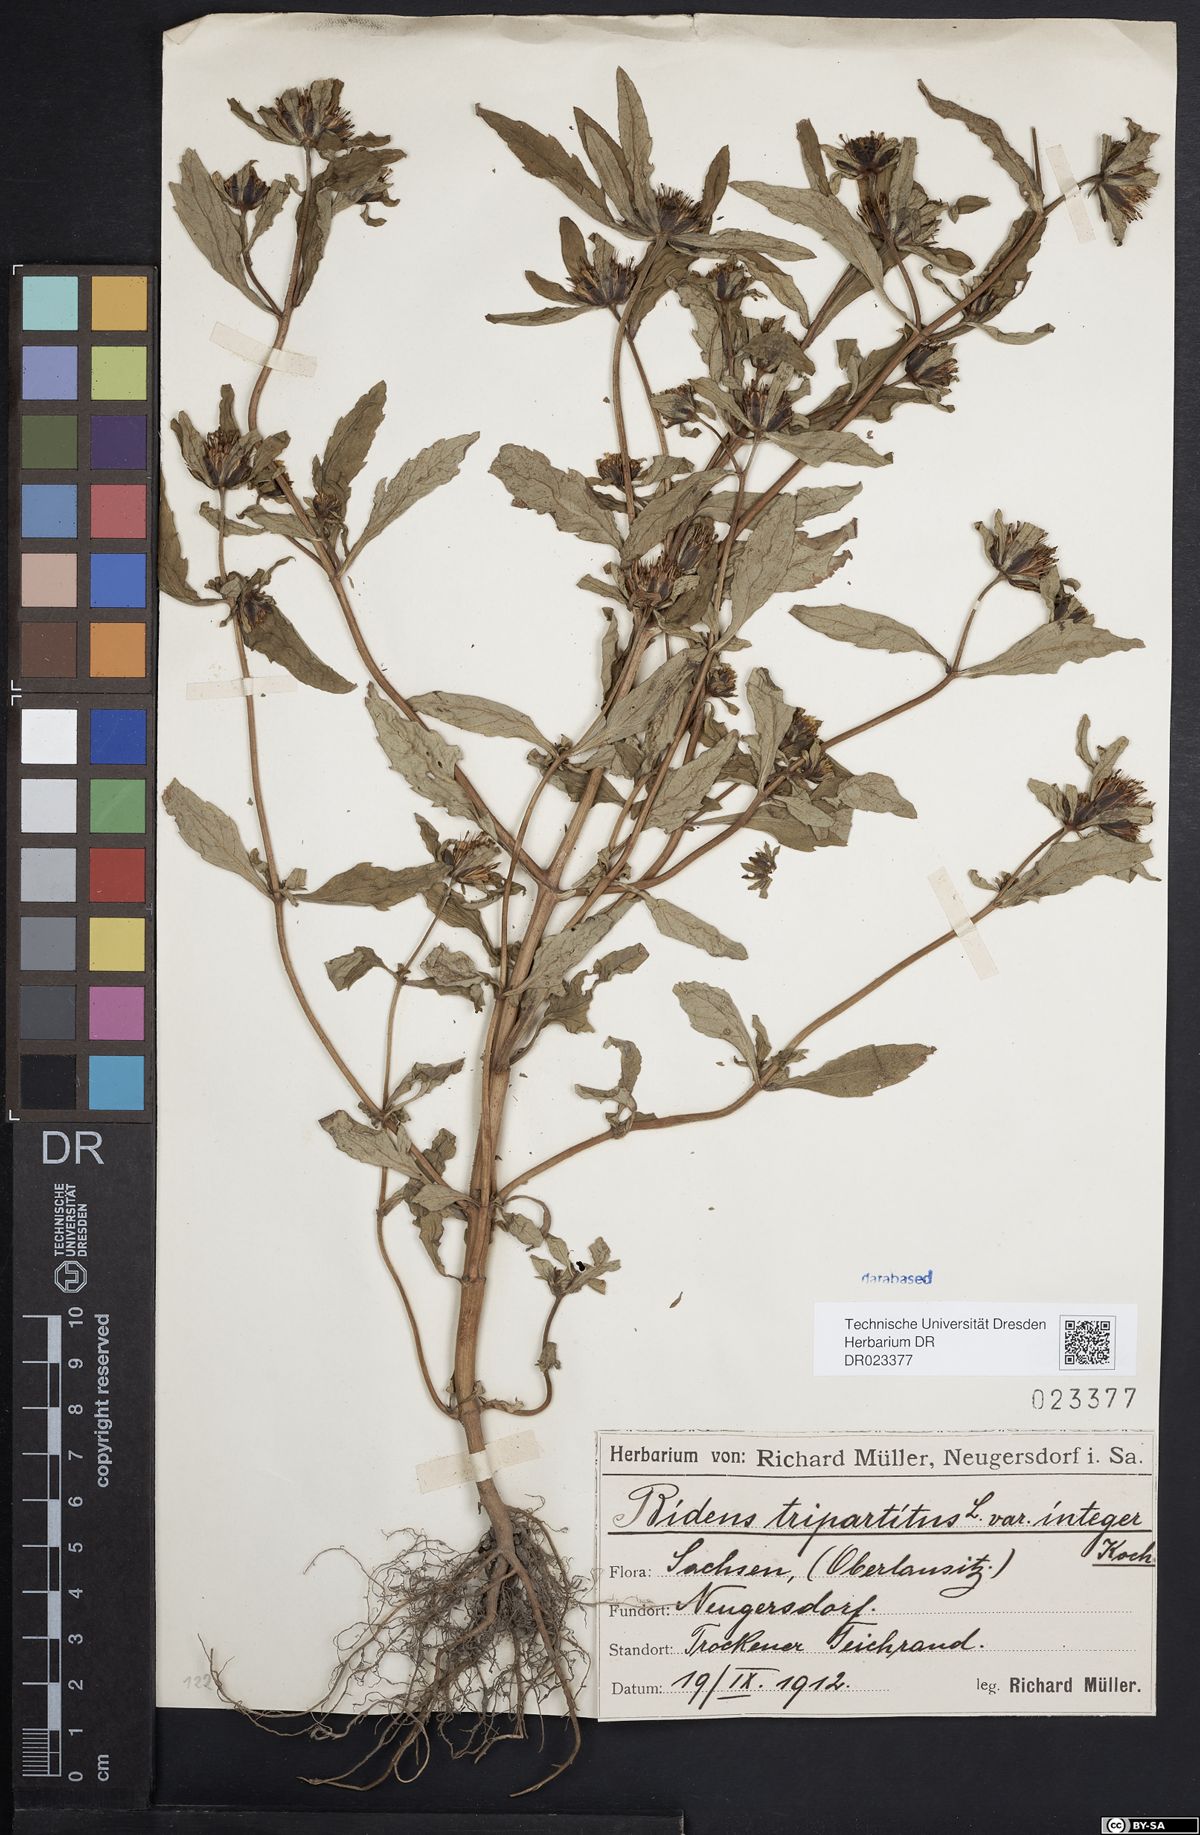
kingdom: Plantae
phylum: Tracheophyta
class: Magnoliopsida
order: Asterales
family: Asteraceae
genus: Bidens
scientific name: Bidens tripartita
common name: Trifid bur-marigold
